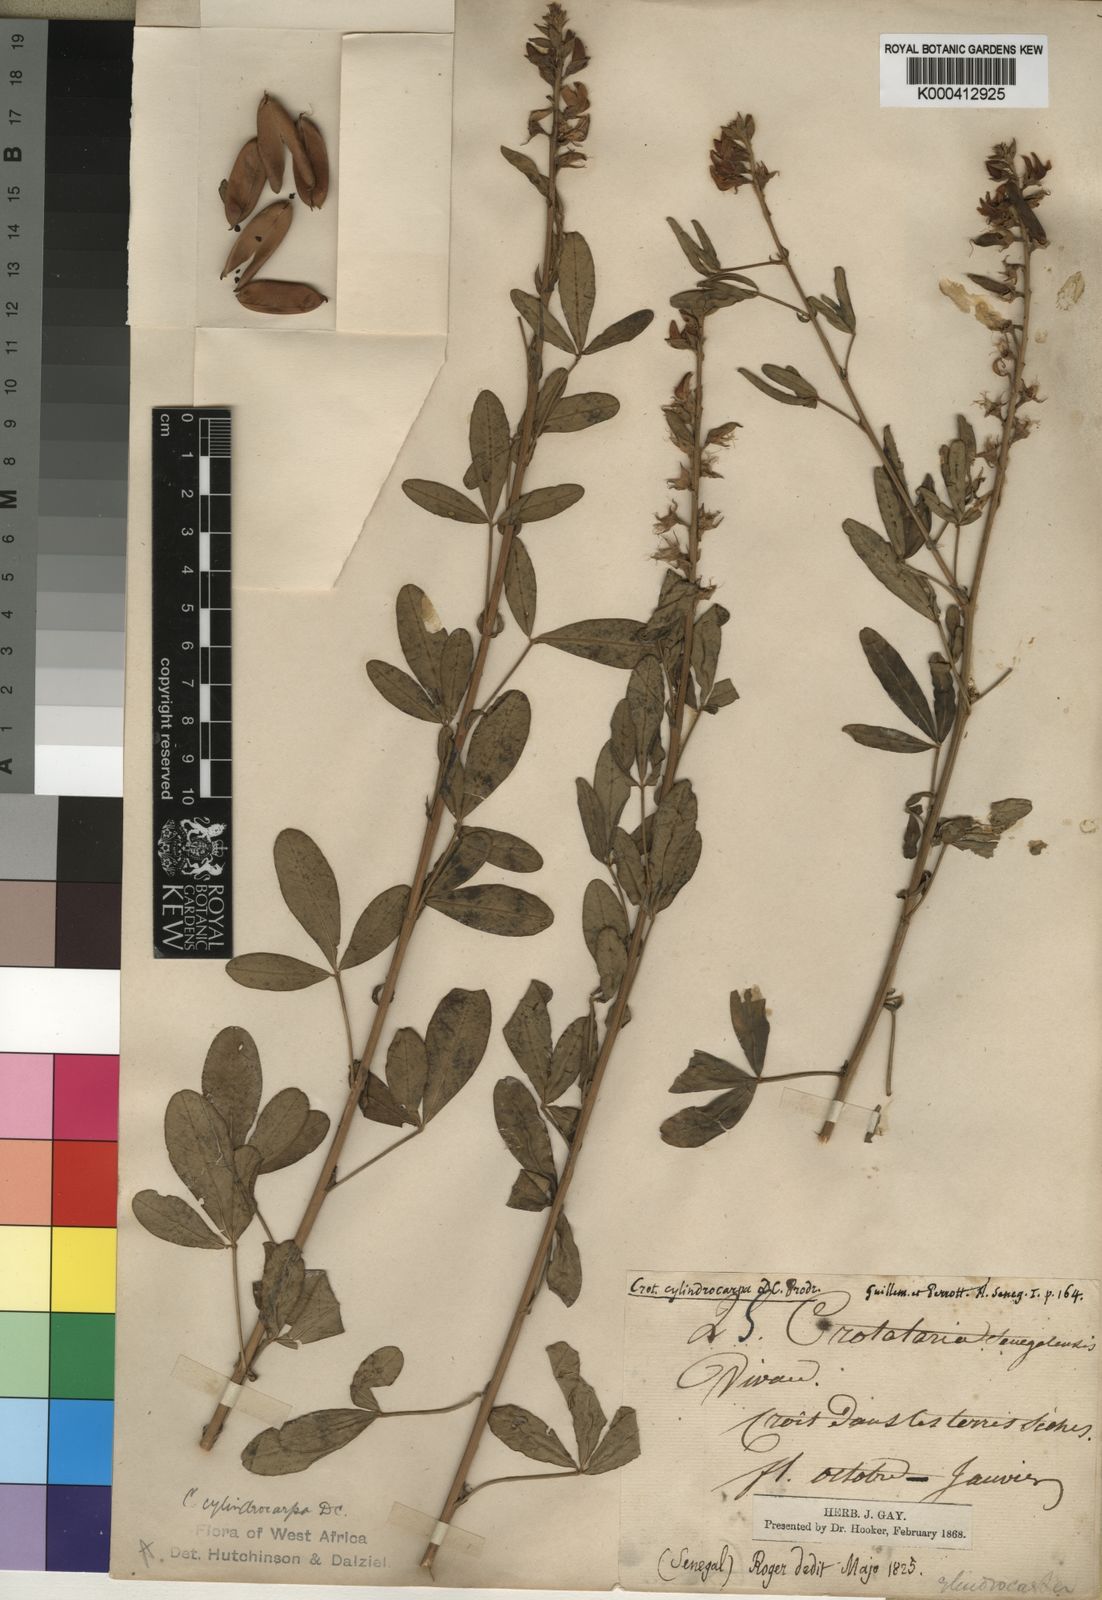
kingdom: Plantae
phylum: Tracheophyta
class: Magnoliopsida
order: Fabales
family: Fabaceae
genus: Crotalaria
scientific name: Crotalaria cylindrocarpa
